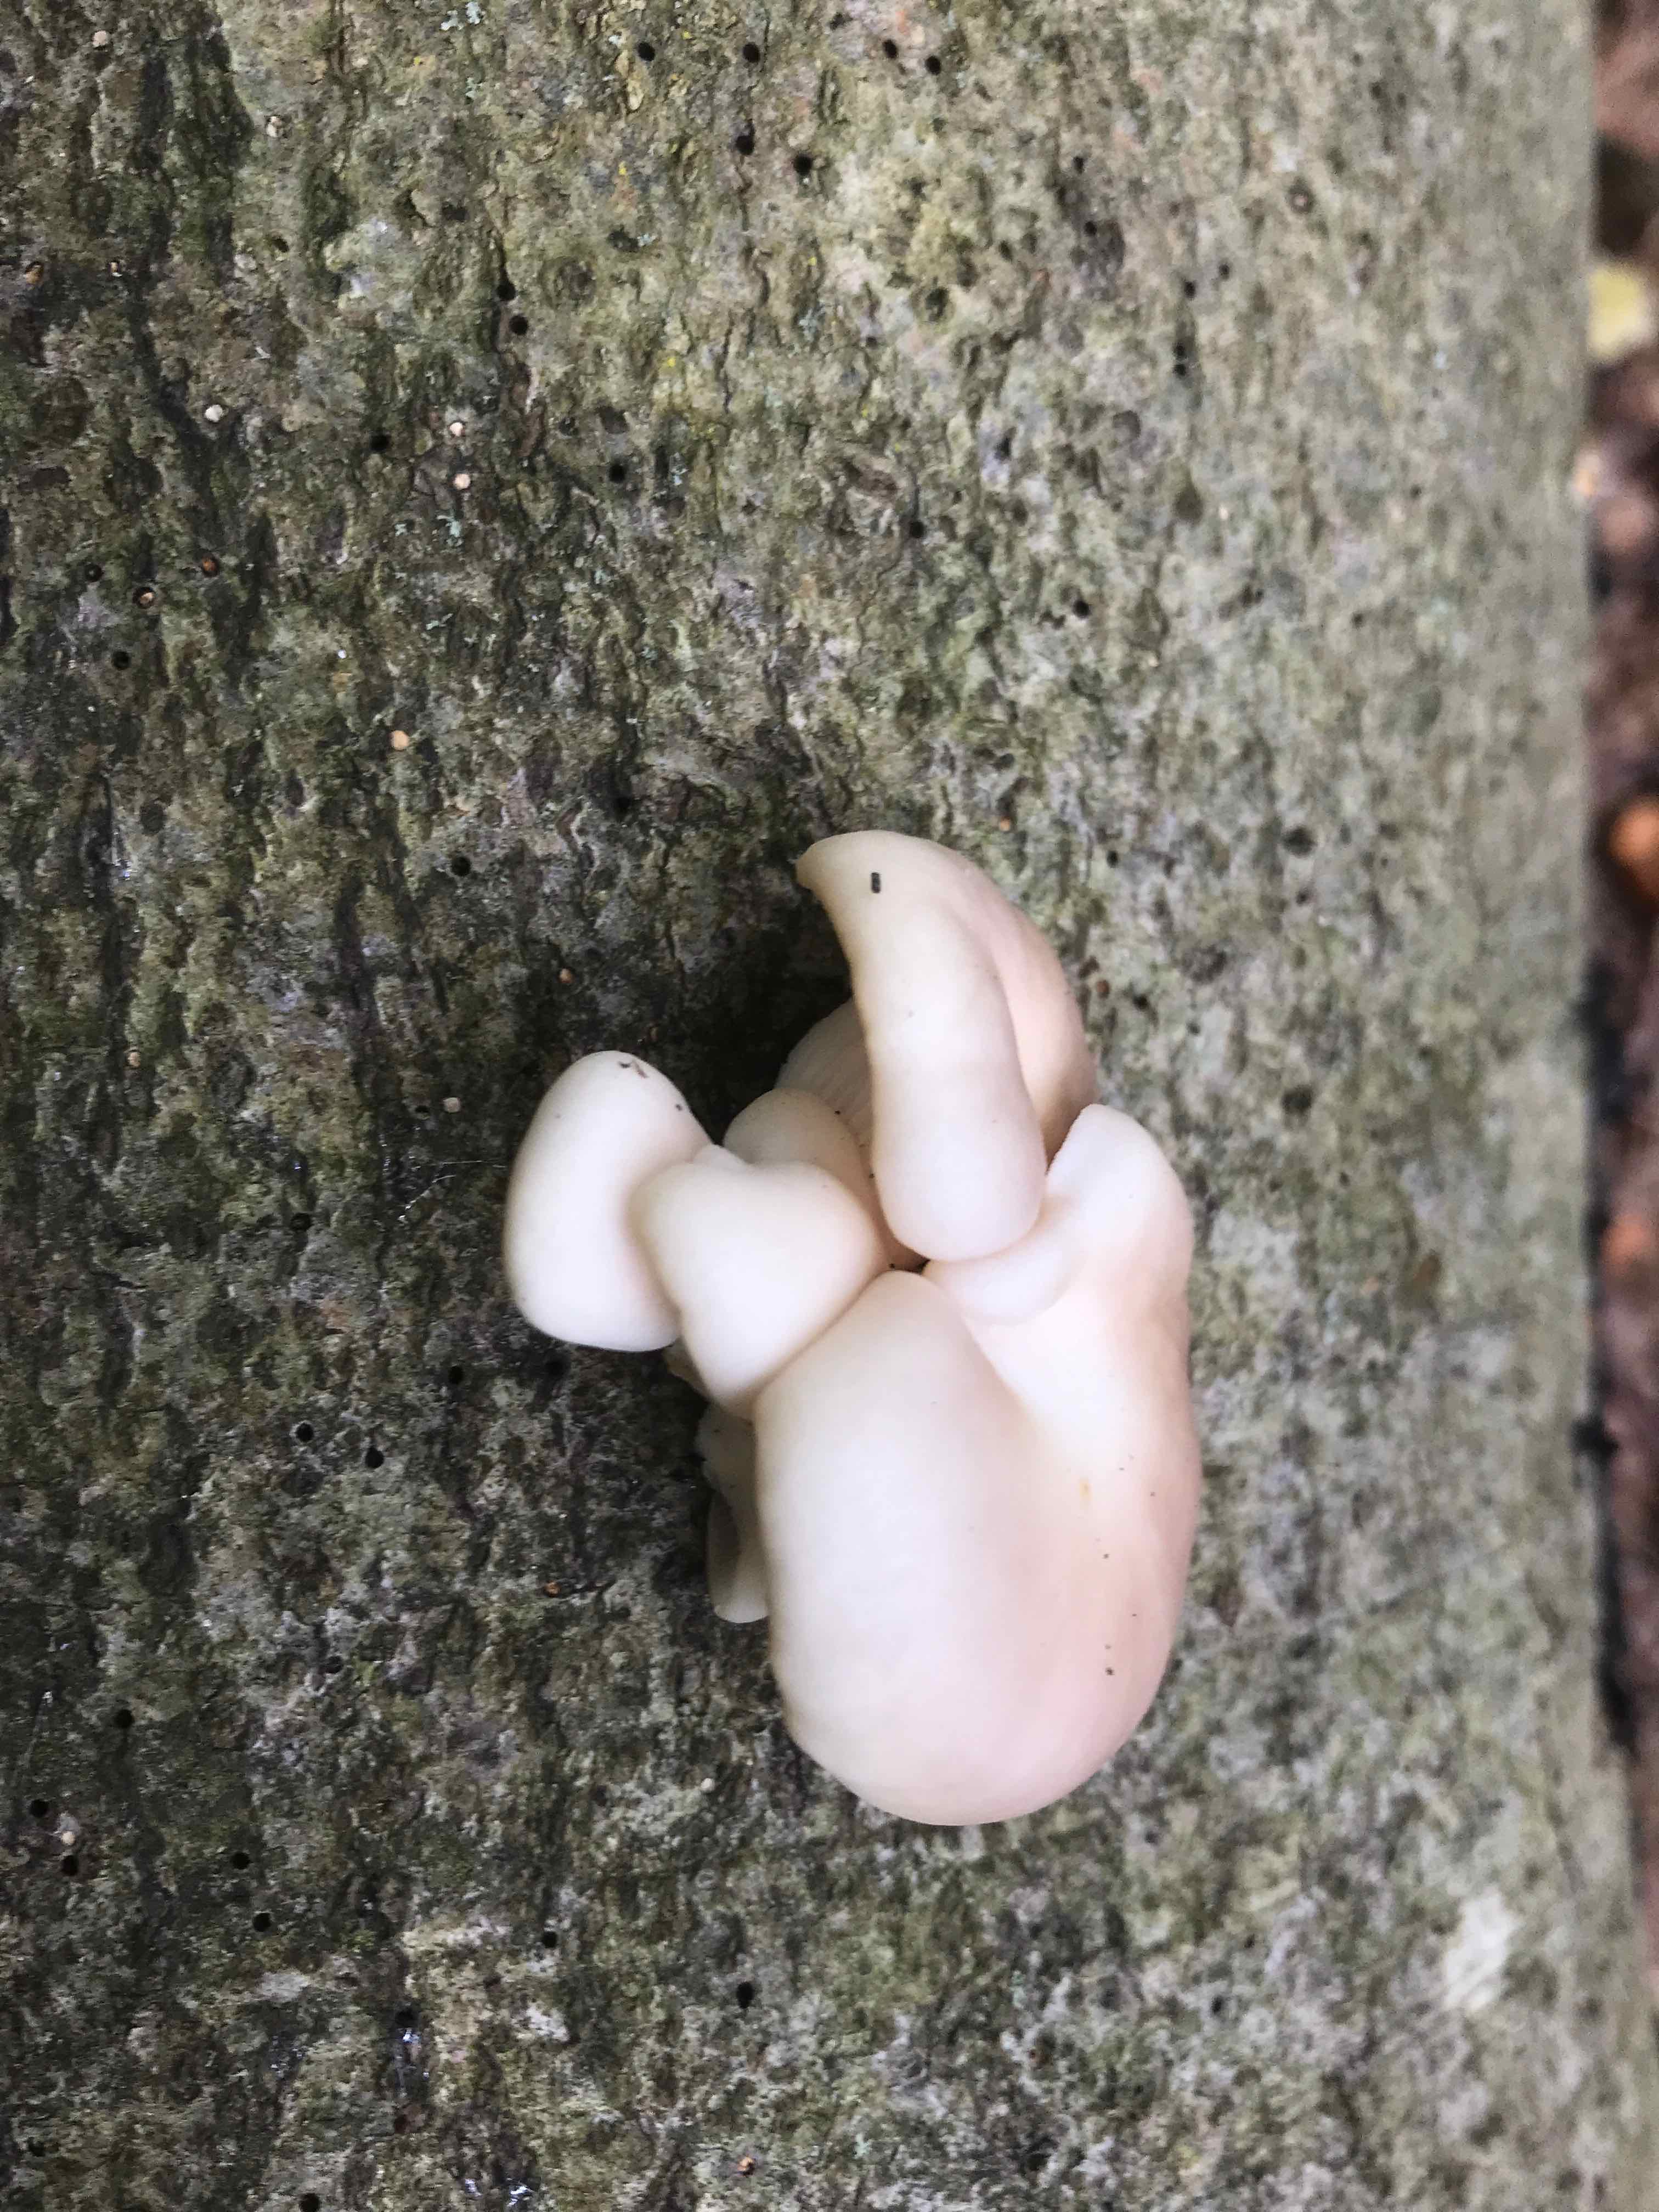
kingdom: Fungi
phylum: Basidiomycota
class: Agaricomycetes
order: Agaricales
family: Pleurotaceae
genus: Pleurotus
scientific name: Pleurotus pulmonarius
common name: sommer-østershat
